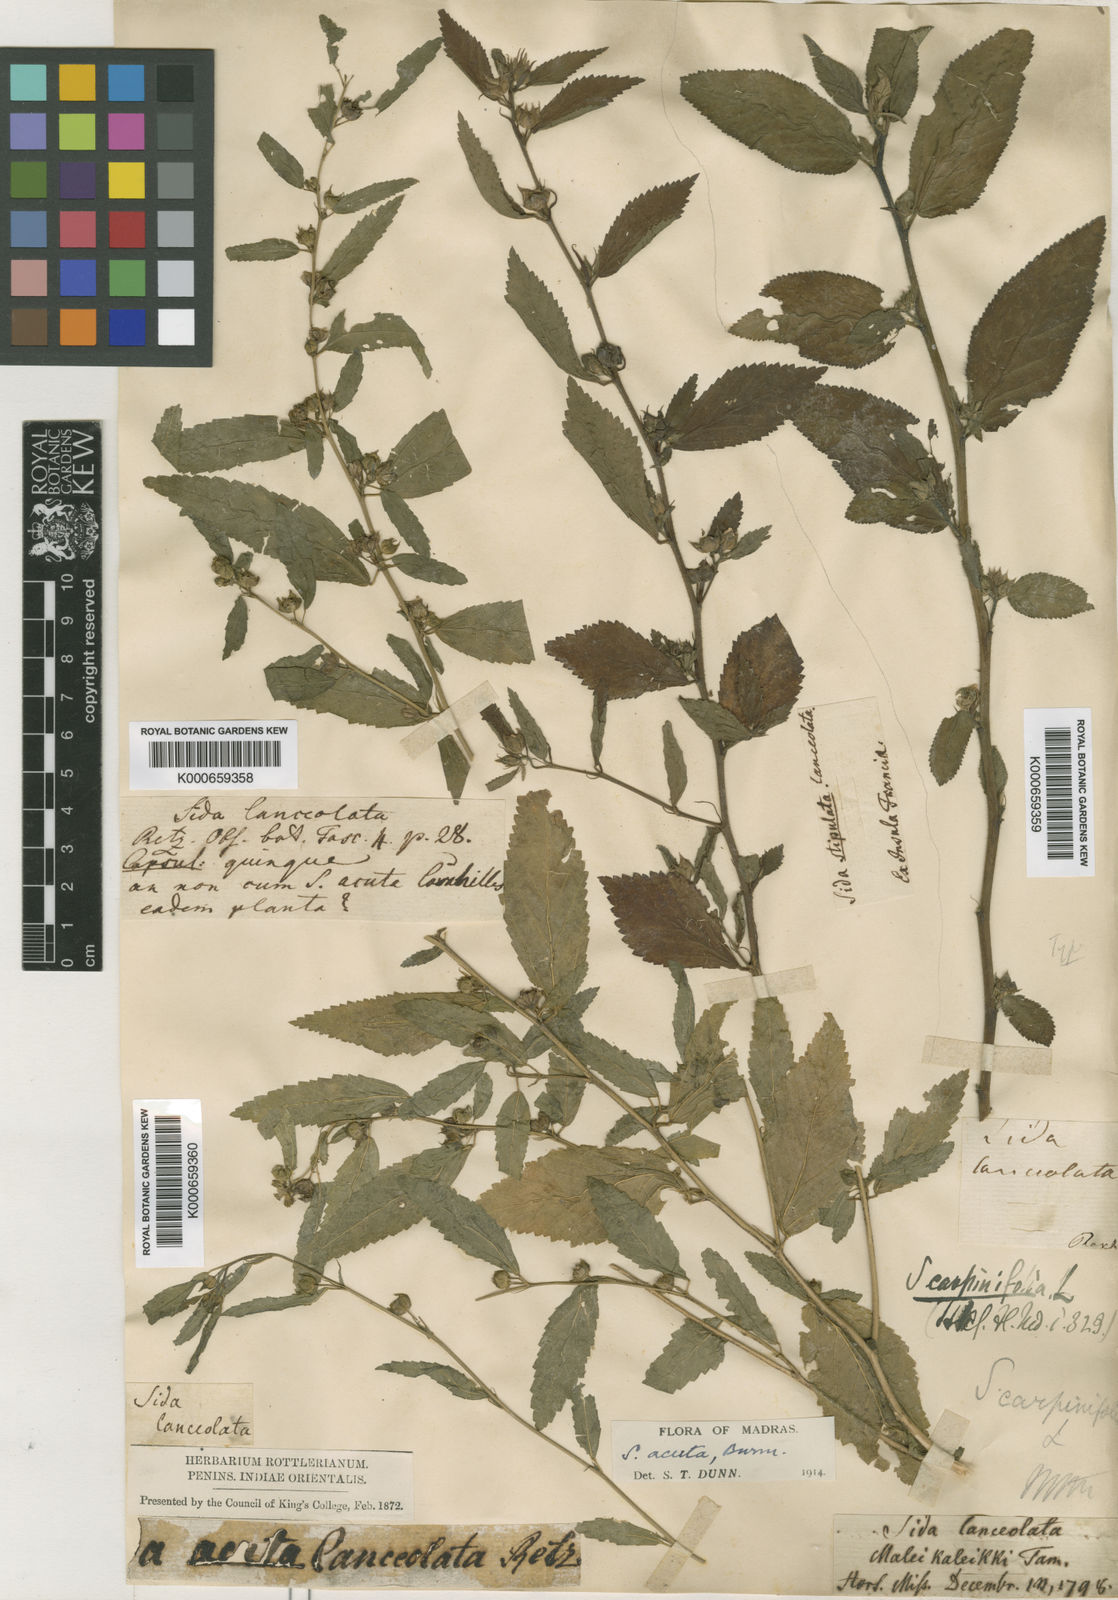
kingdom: Plantae
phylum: Tracheophyta
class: Magnoliopsida
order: Malvales
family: Malvaceae
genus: Sida
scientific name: Sida acuta
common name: Common wireweed
